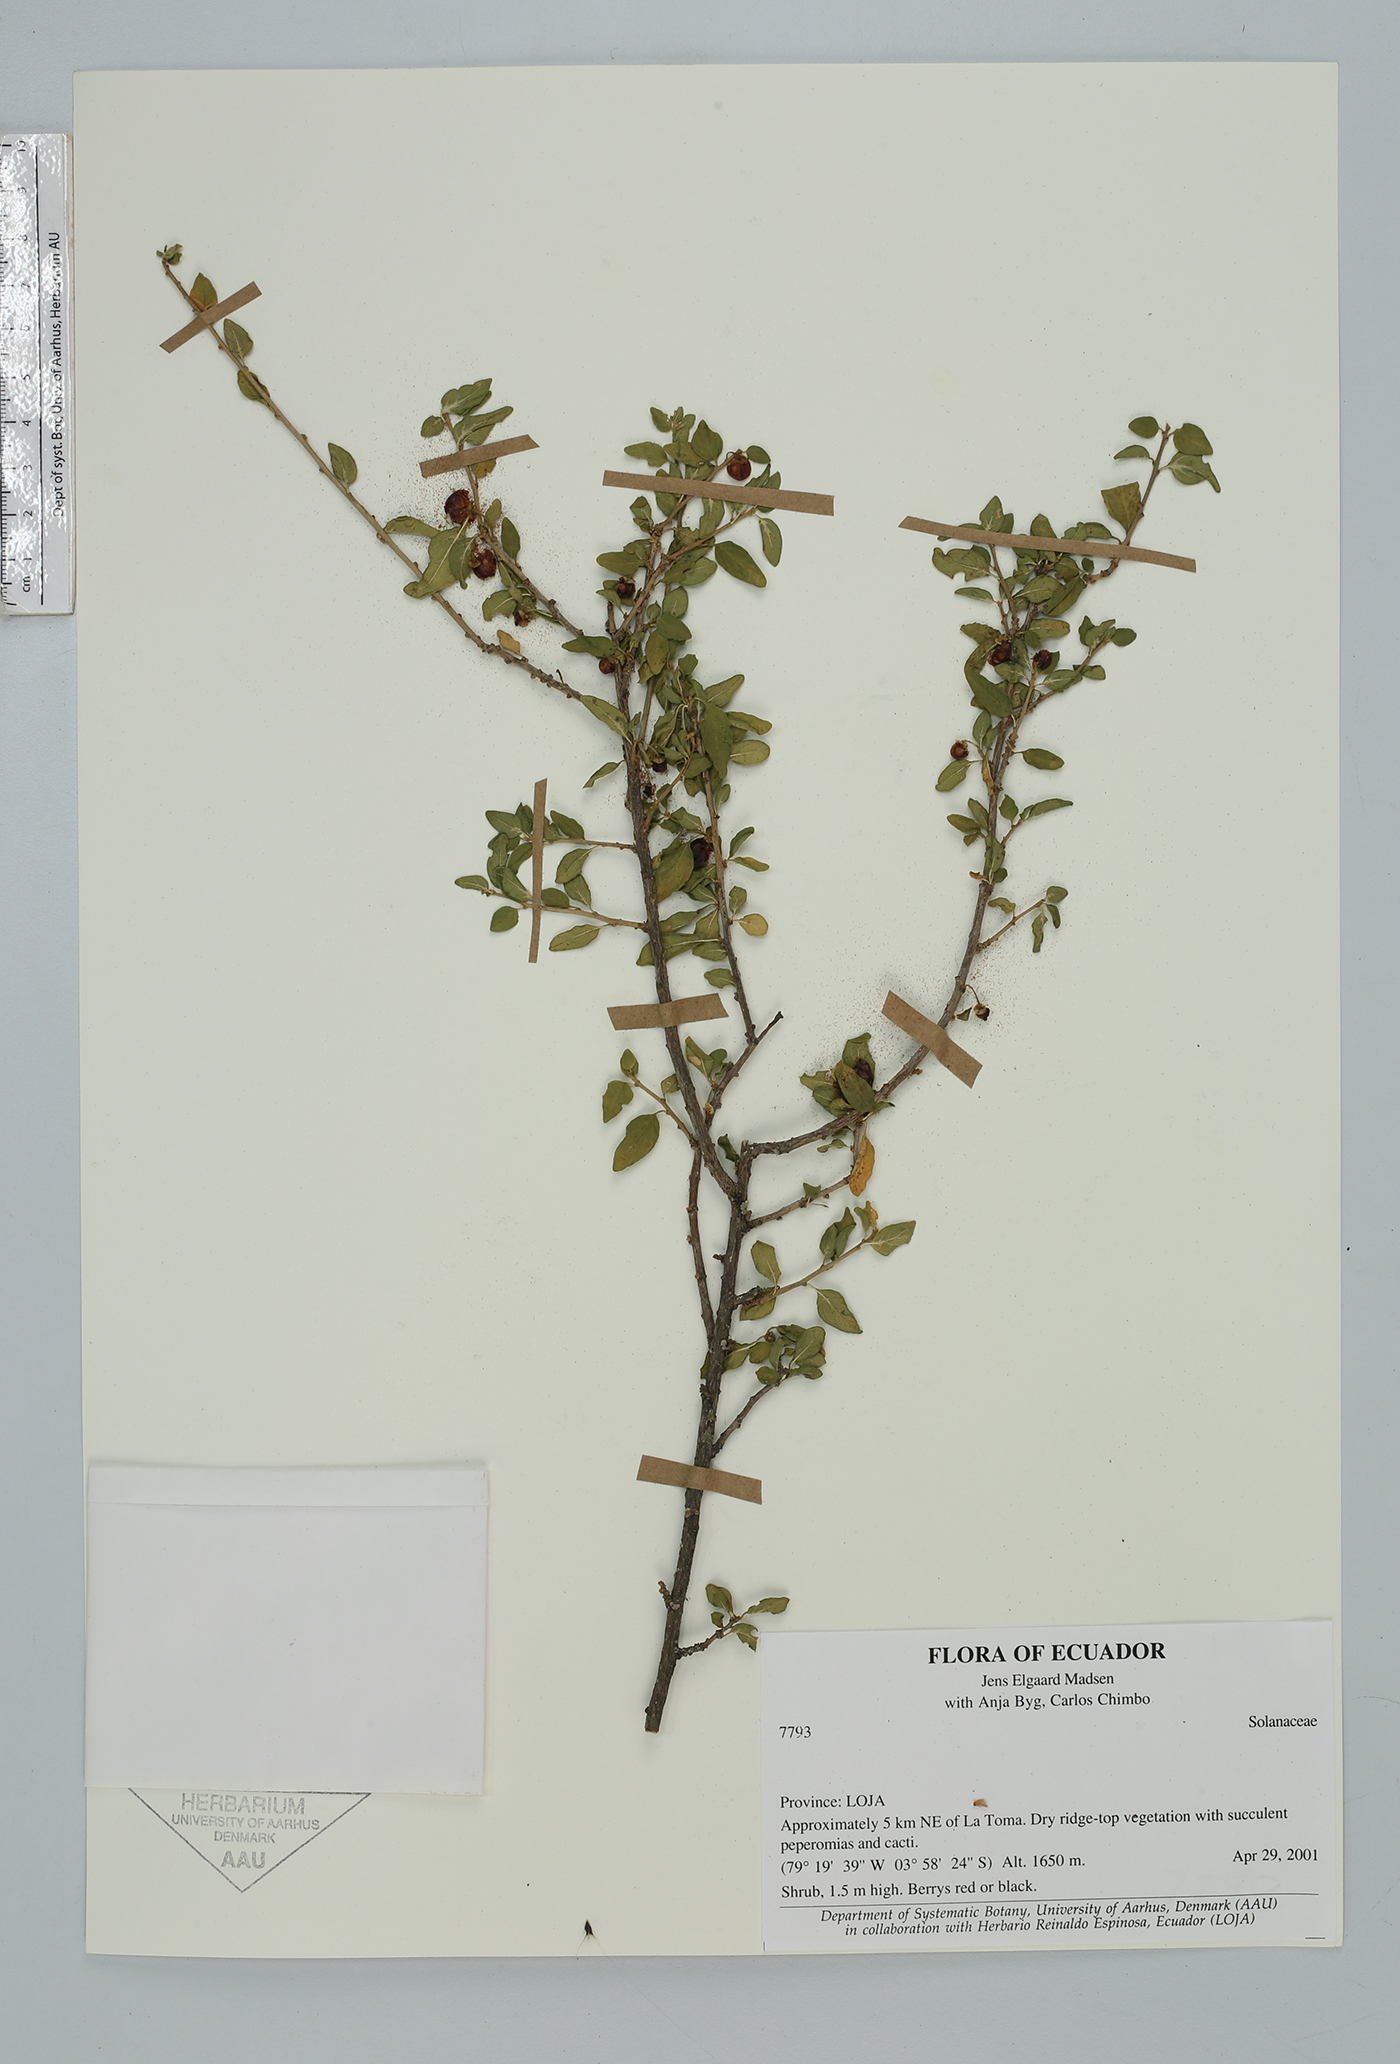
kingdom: Plantae
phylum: Tracheophyta
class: Magnoliopsida
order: Solanales
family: Solanaceae
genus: Lycianthes
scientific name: Lycianthes lycioides
